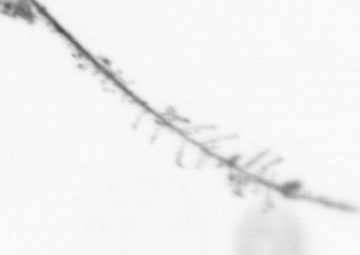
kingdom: Chromista
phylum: Ochrophyta
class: Bacillariophyceae
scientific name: Bacillariophyceae
